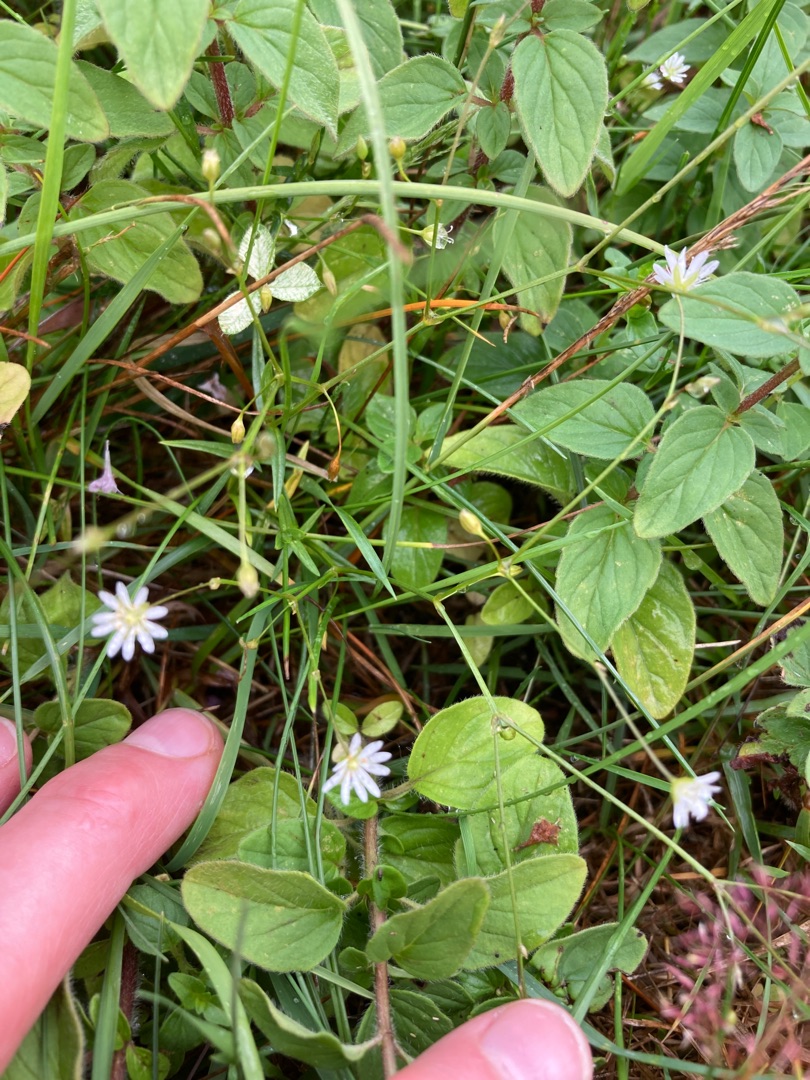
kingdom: Plantae
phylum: Tracheophyta
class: Magnoliopsida
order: Caryophyllales
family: Caryophyllaceae
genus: Stellaria
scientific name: Stellaria graminea
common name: Græsbladet fladstjerne
